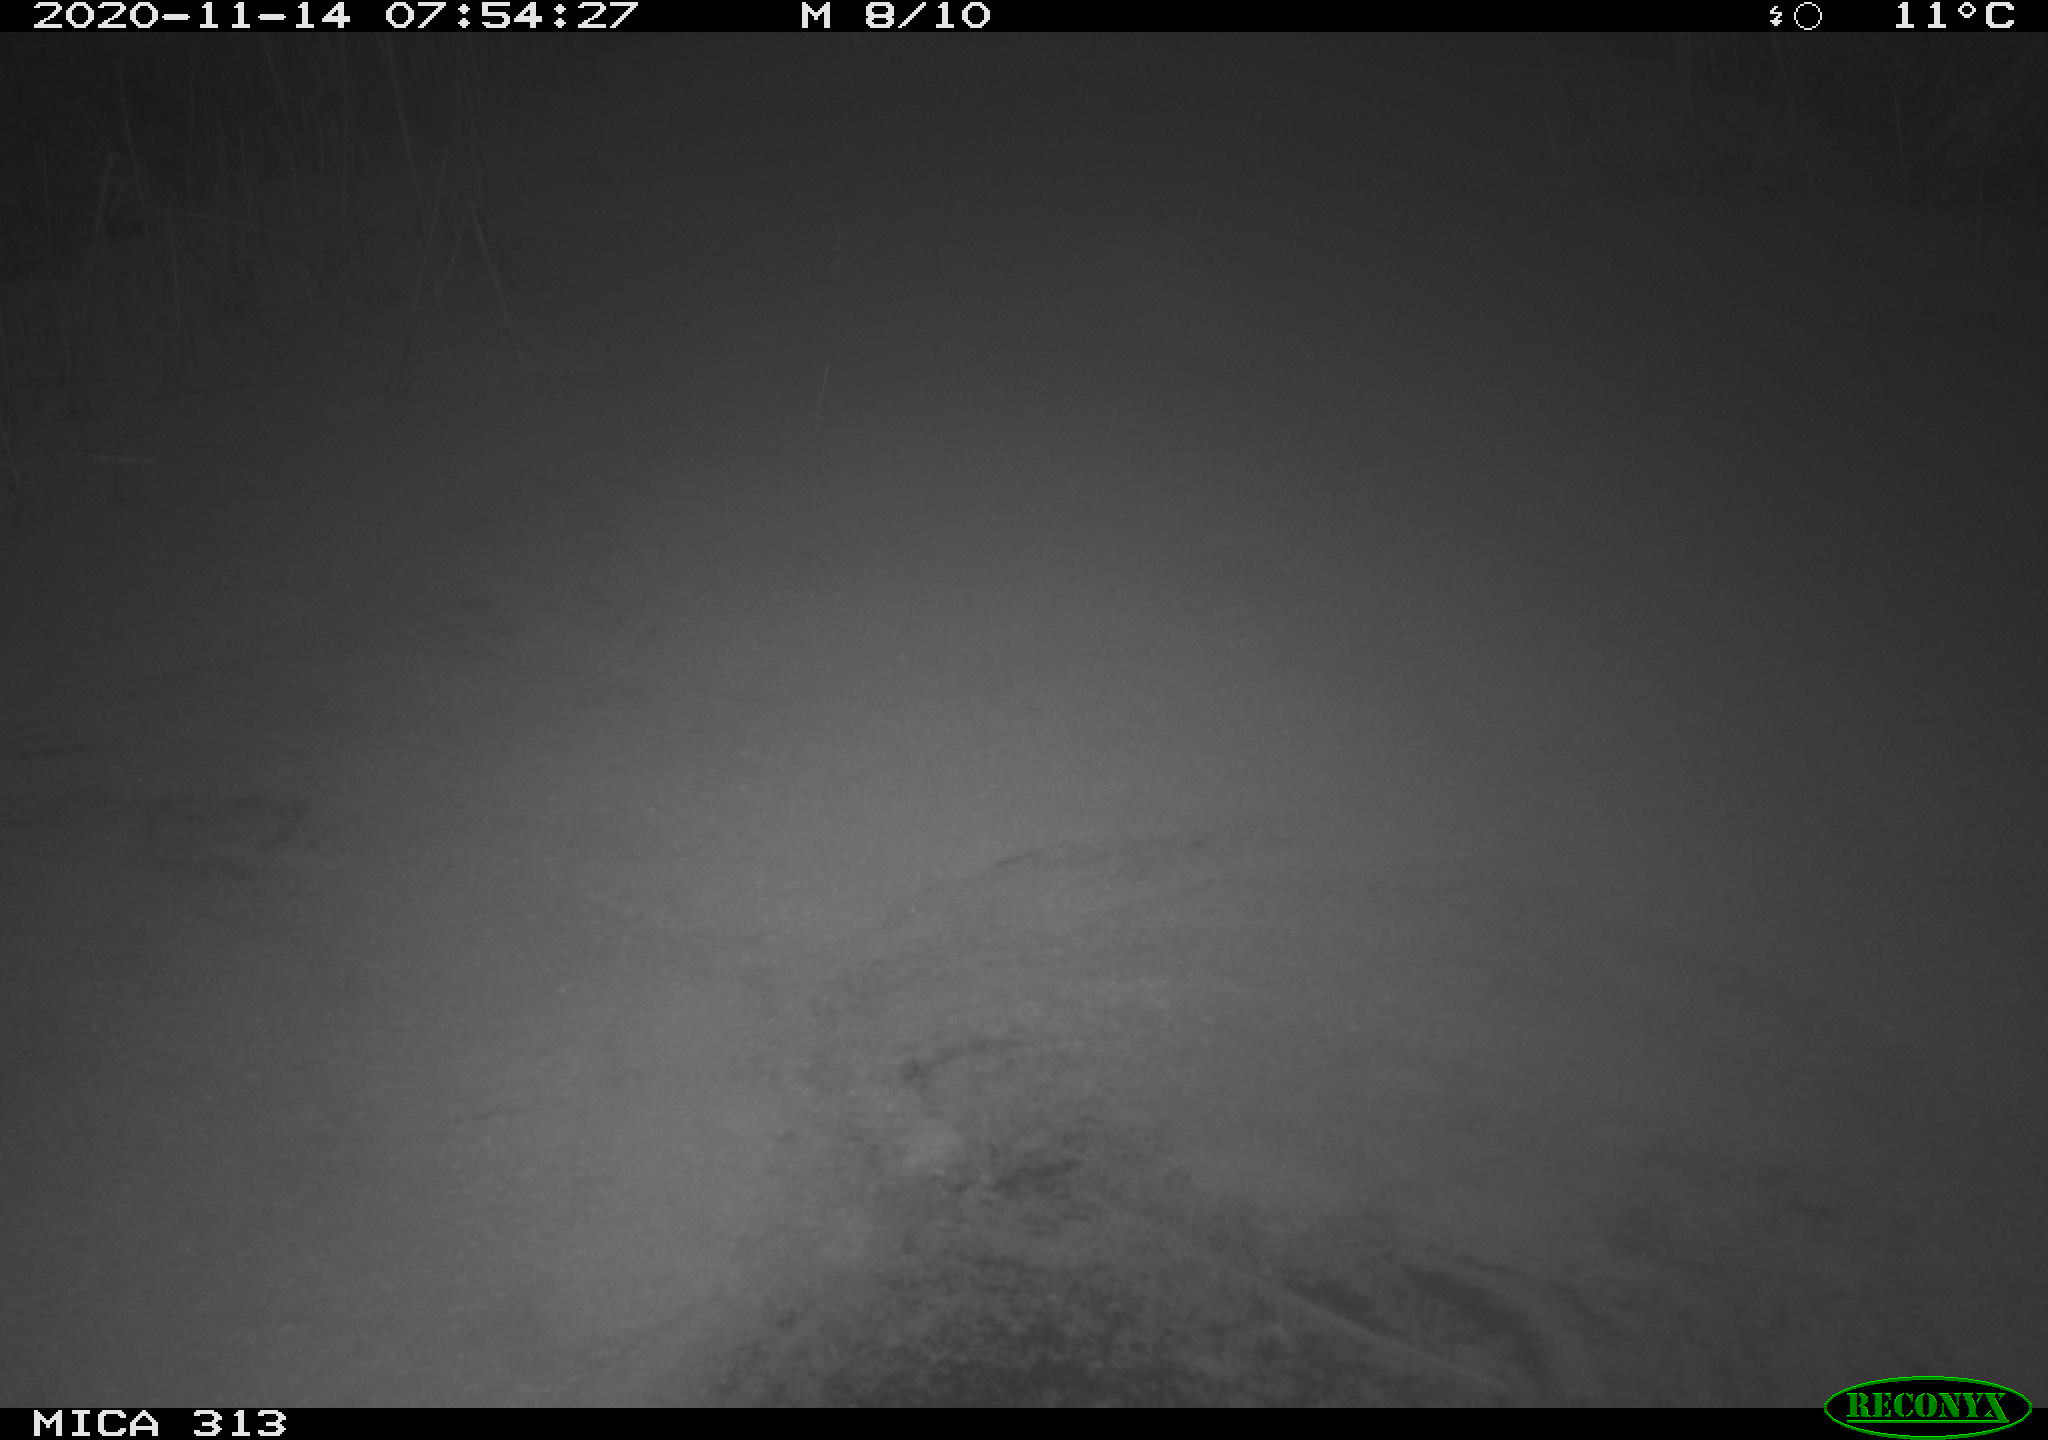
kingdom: Animalia
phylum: Chordata
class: Aves
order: Gruiformes
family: Rallidae
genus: Gallinula
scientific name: Gallinula chloropus
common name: Common moorhen
